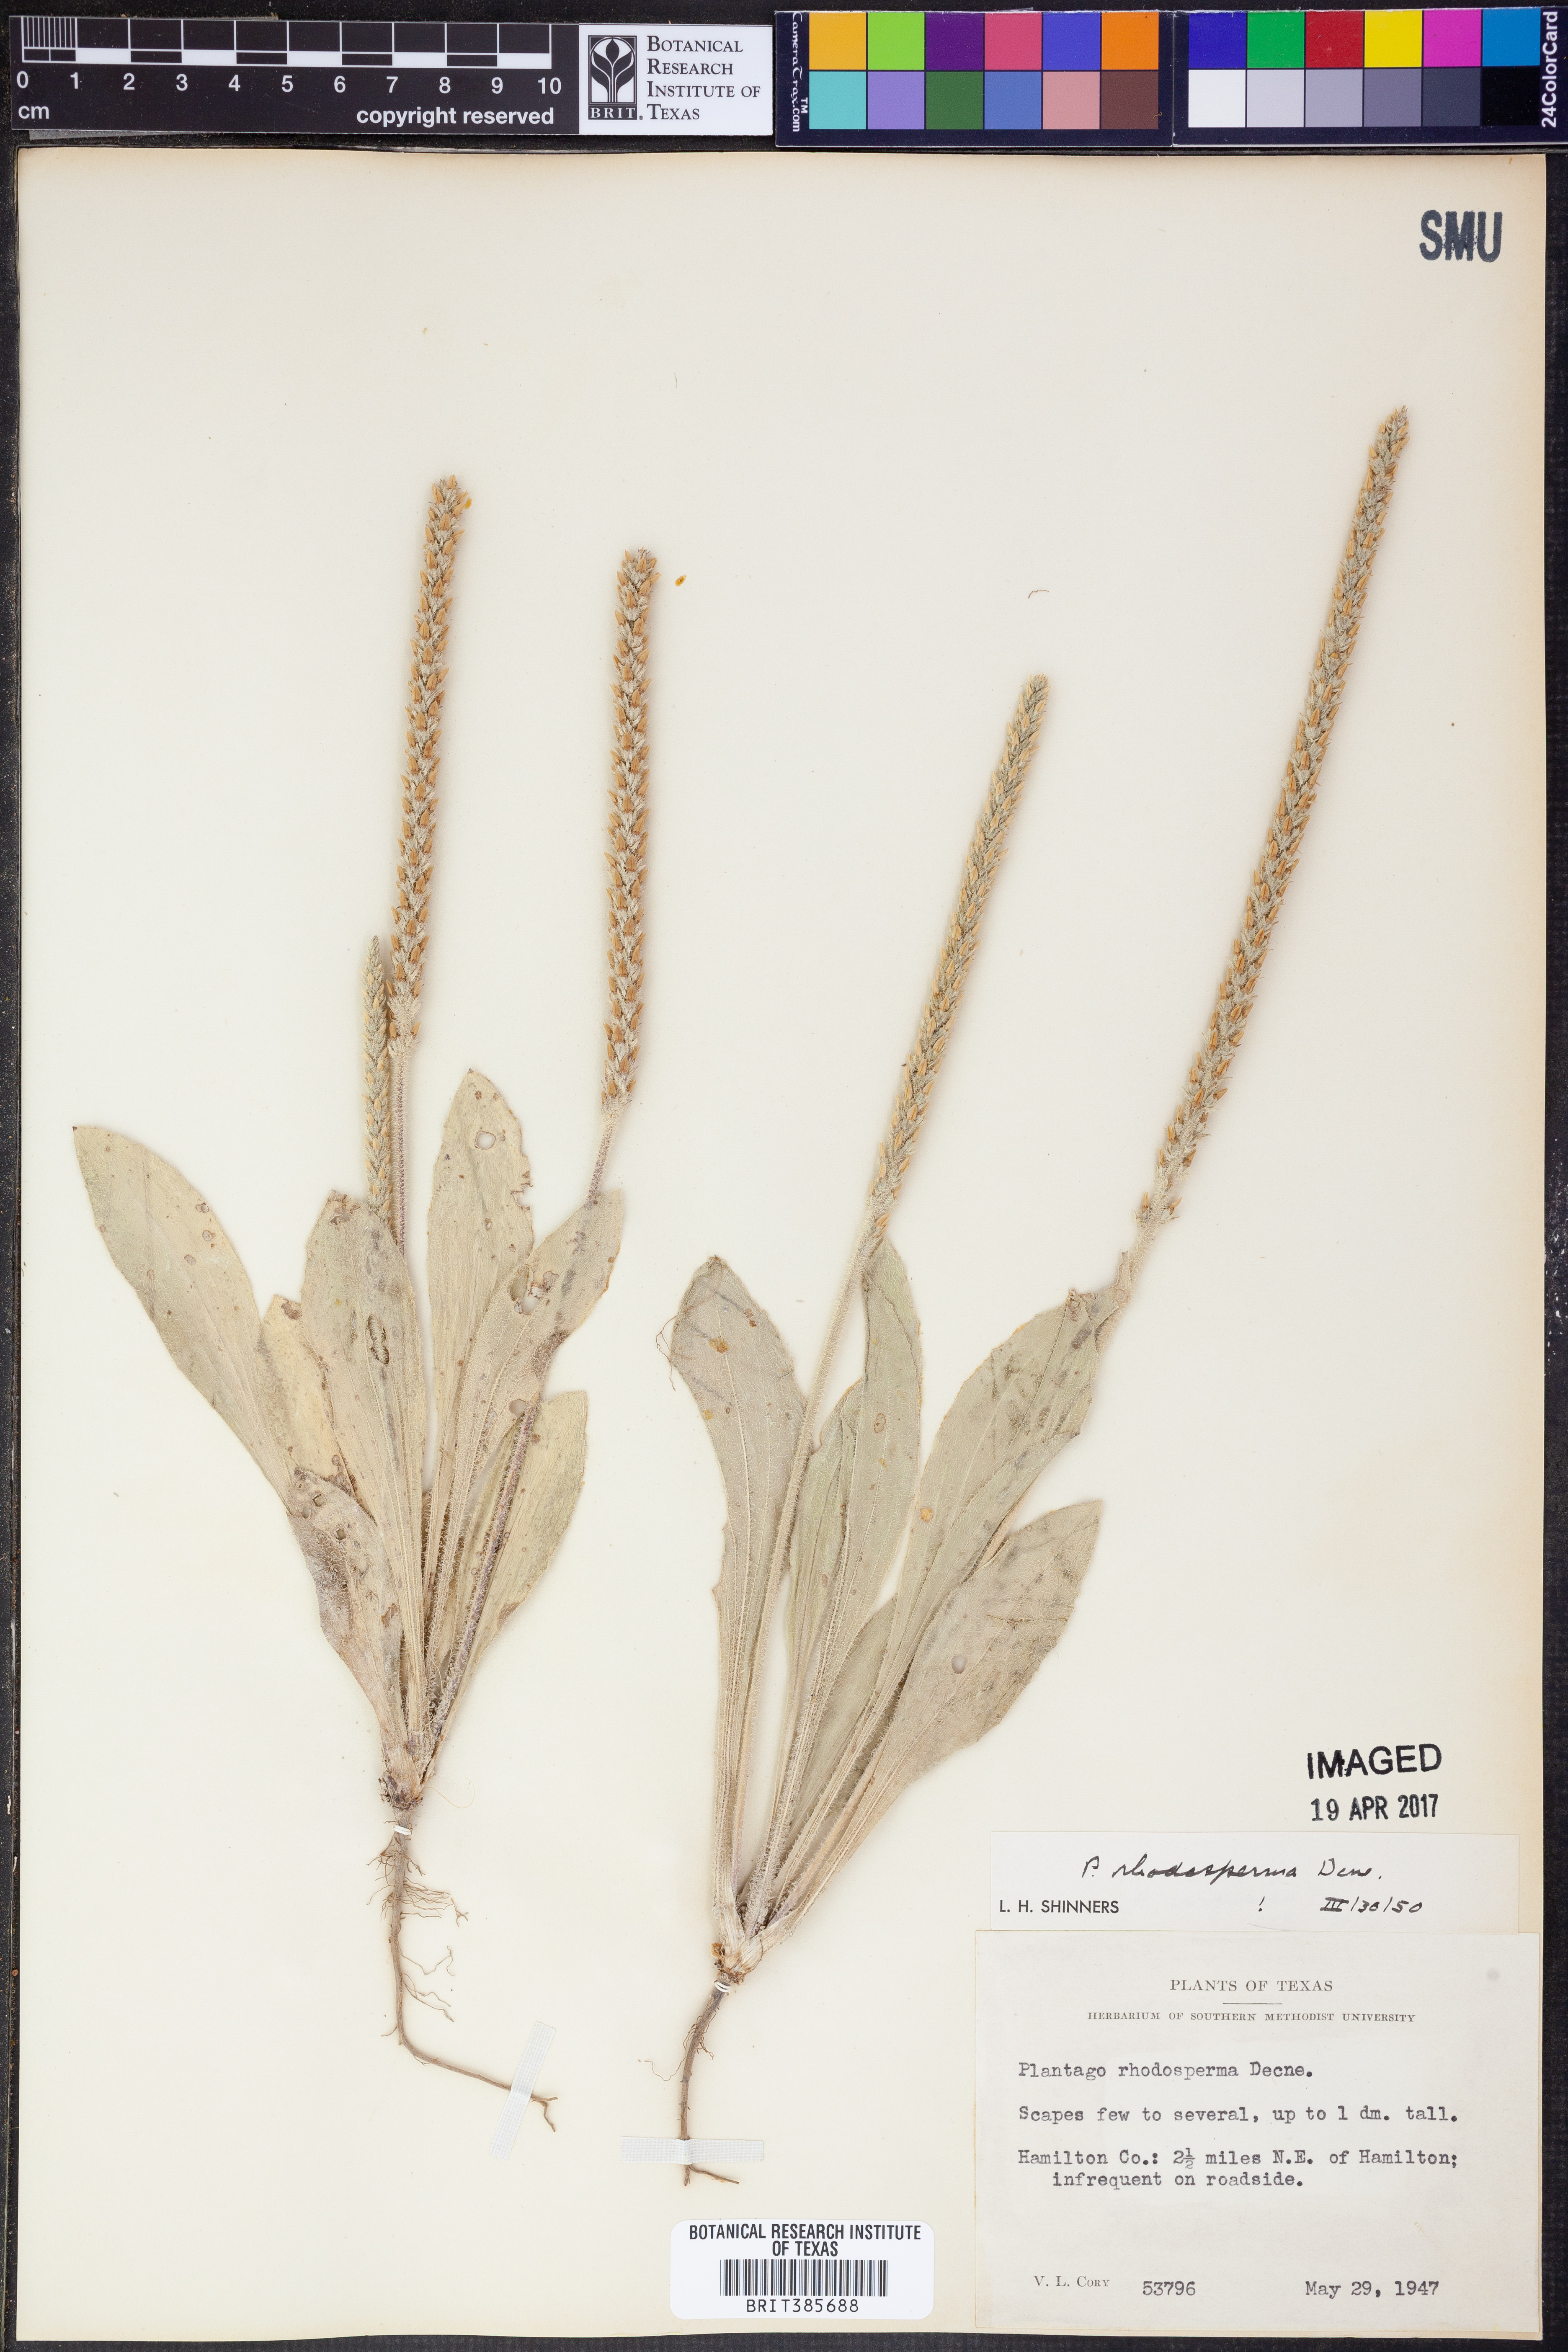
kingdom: Plantae
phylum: Tracheophyta
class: Magnoliopsida
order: Lamiales
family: Plantaginaceae
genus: Plantago
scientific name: Plantago rhodosperma
